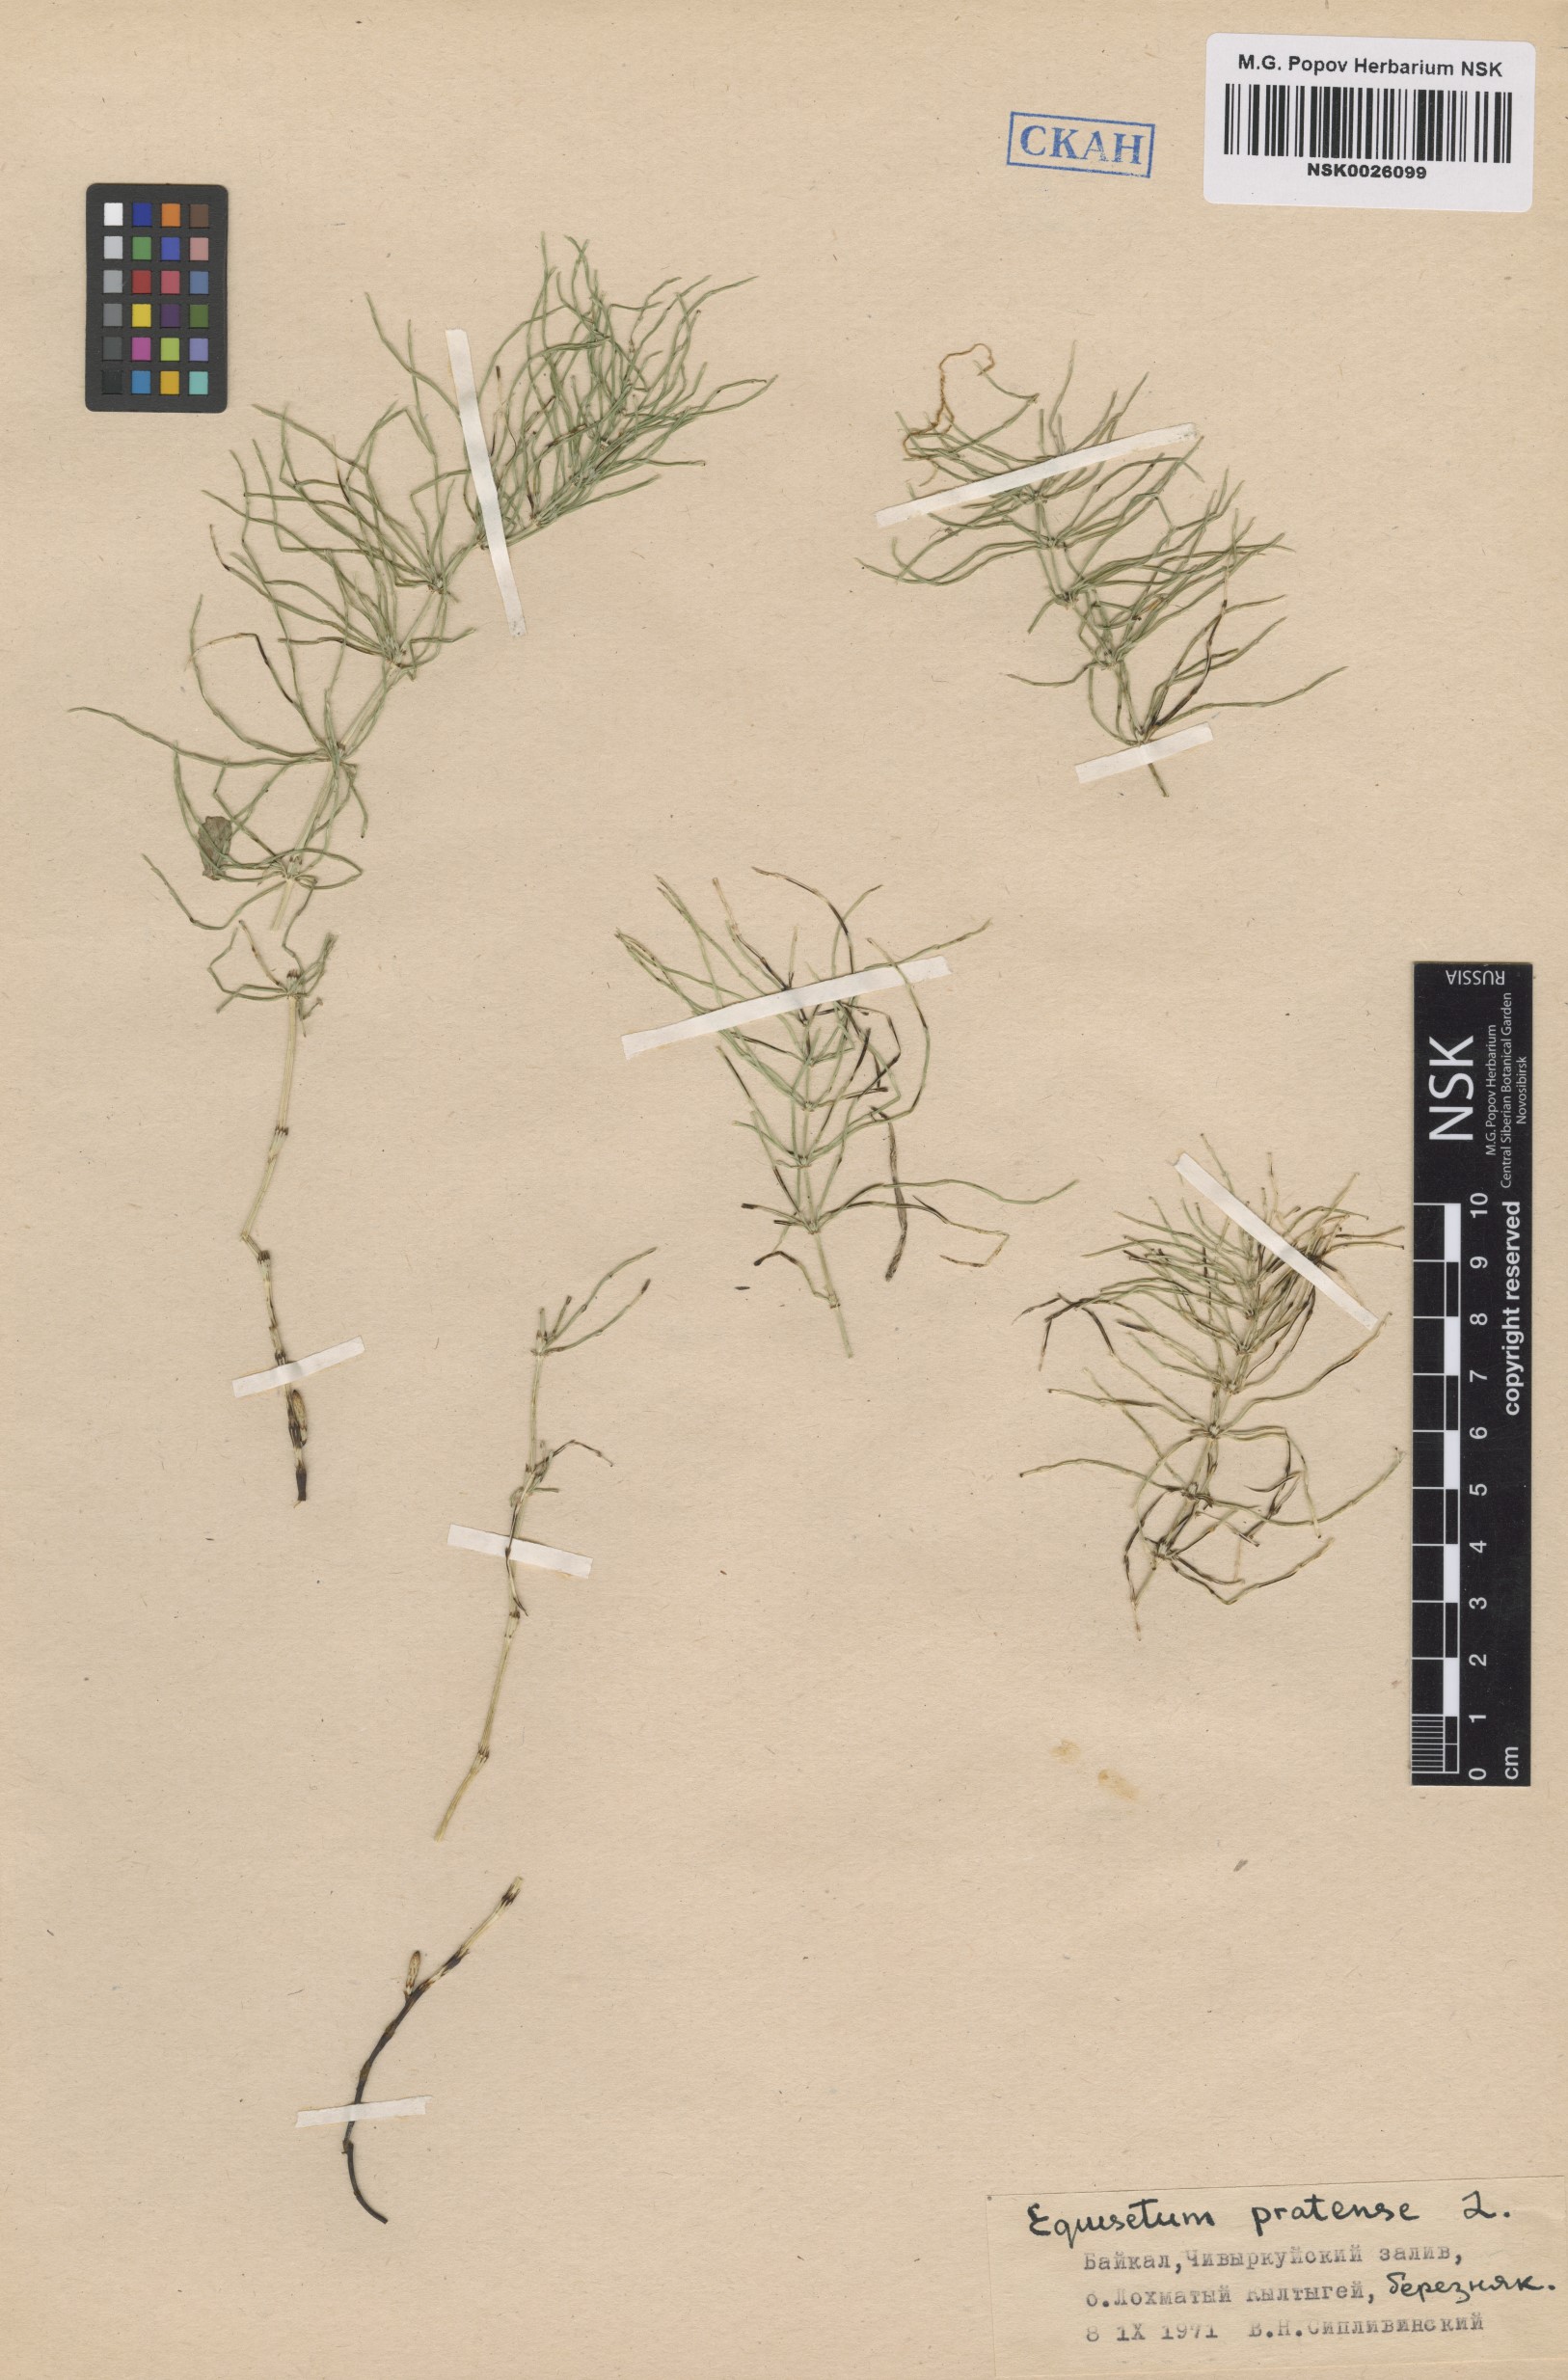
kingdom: Plantae
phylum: Tracheophyta
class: Polypodiopsida
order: Equisetales
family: Equisetaceae
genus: Equisetum
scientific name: Equisetum pratense
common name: Meadow horsetail
